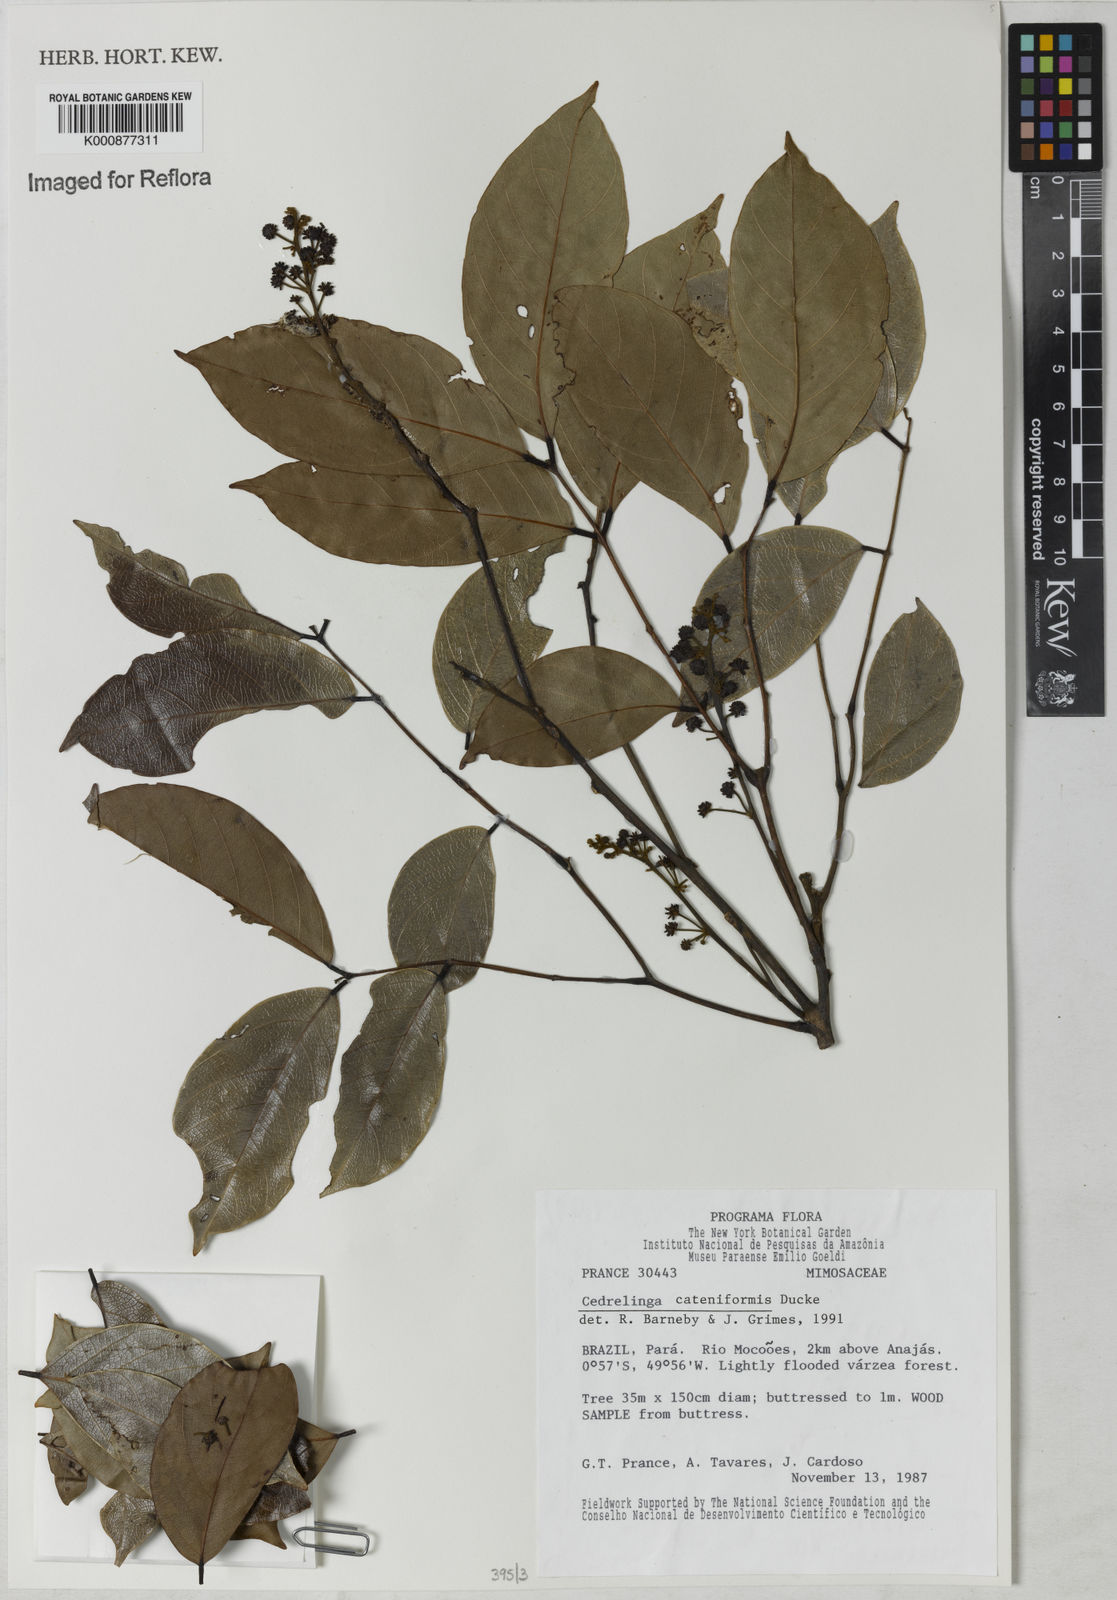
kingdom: Plantae
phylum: Tracheophyta
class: Magnoliopsida
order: Fabales
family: Fabaceae
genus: Cedrelinga
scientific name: Cedrelinga cateniformis
